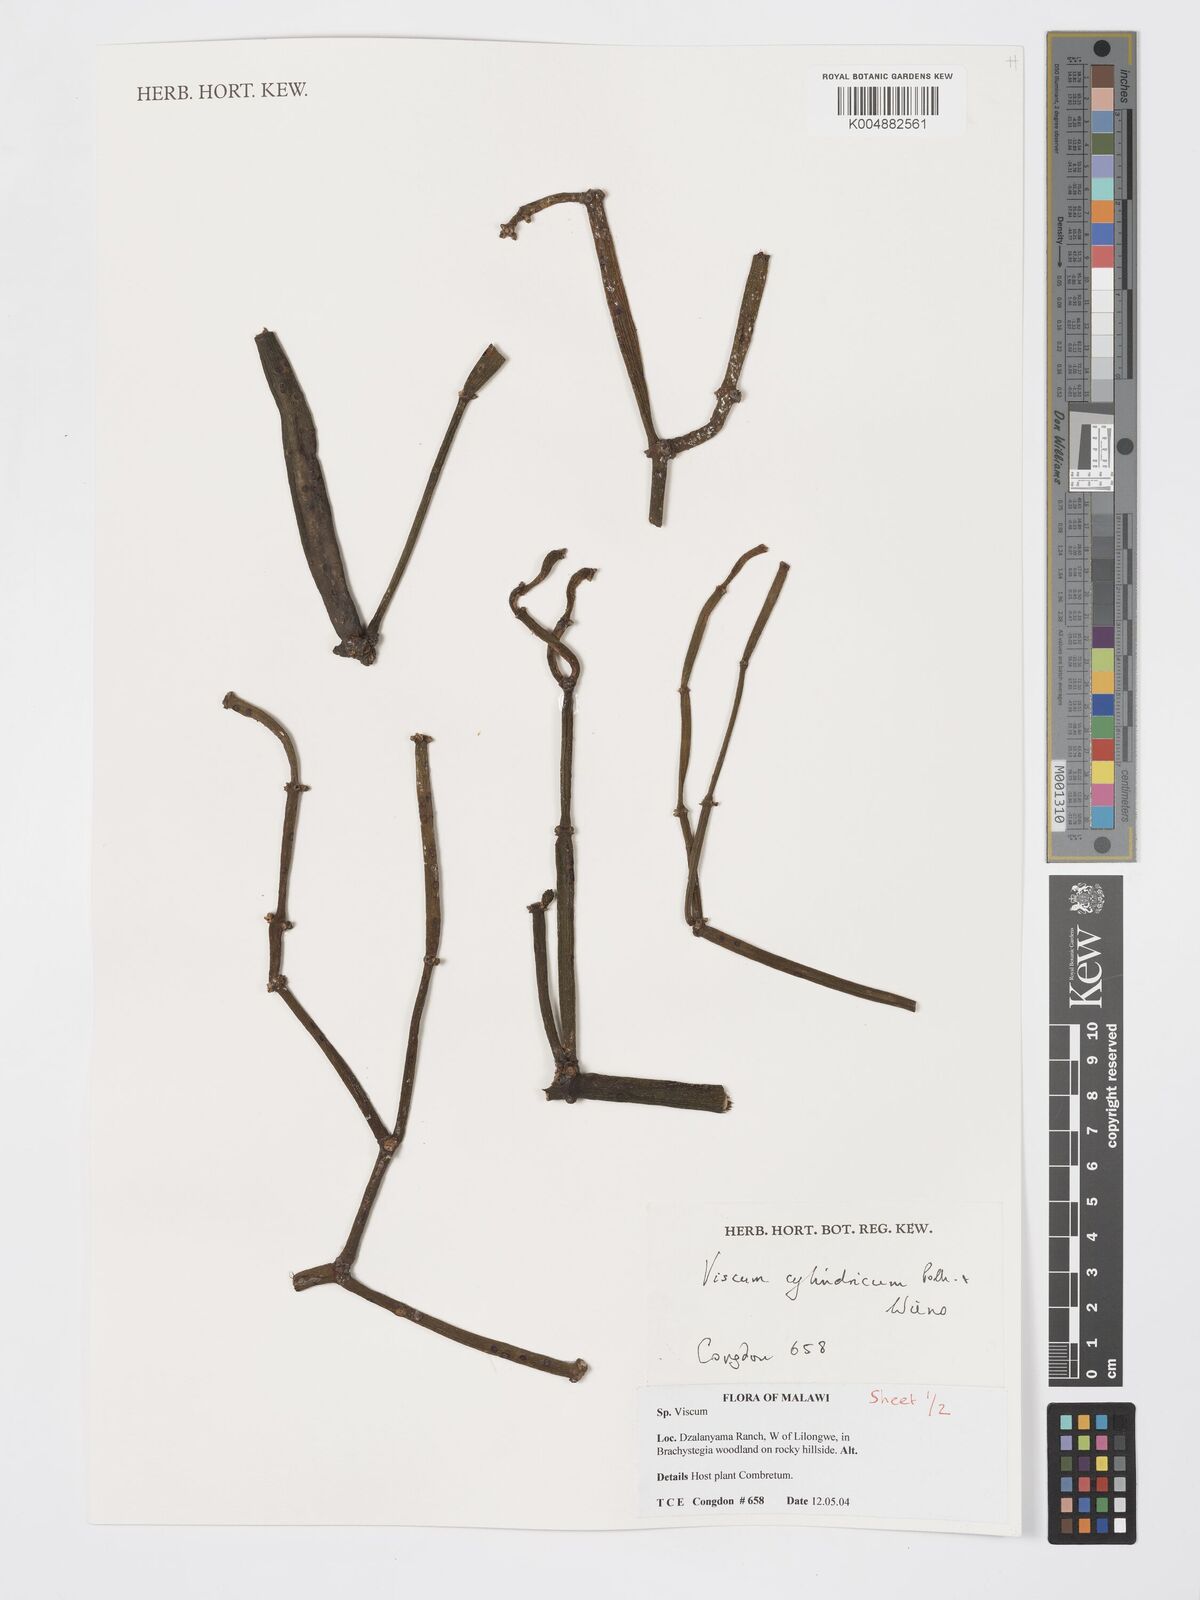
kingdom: Plantae
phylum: Tracheophyta
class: Magnoliopsida
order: Santalales
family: Viscaceae
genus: Viscum
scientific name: Viscum cylindricum
